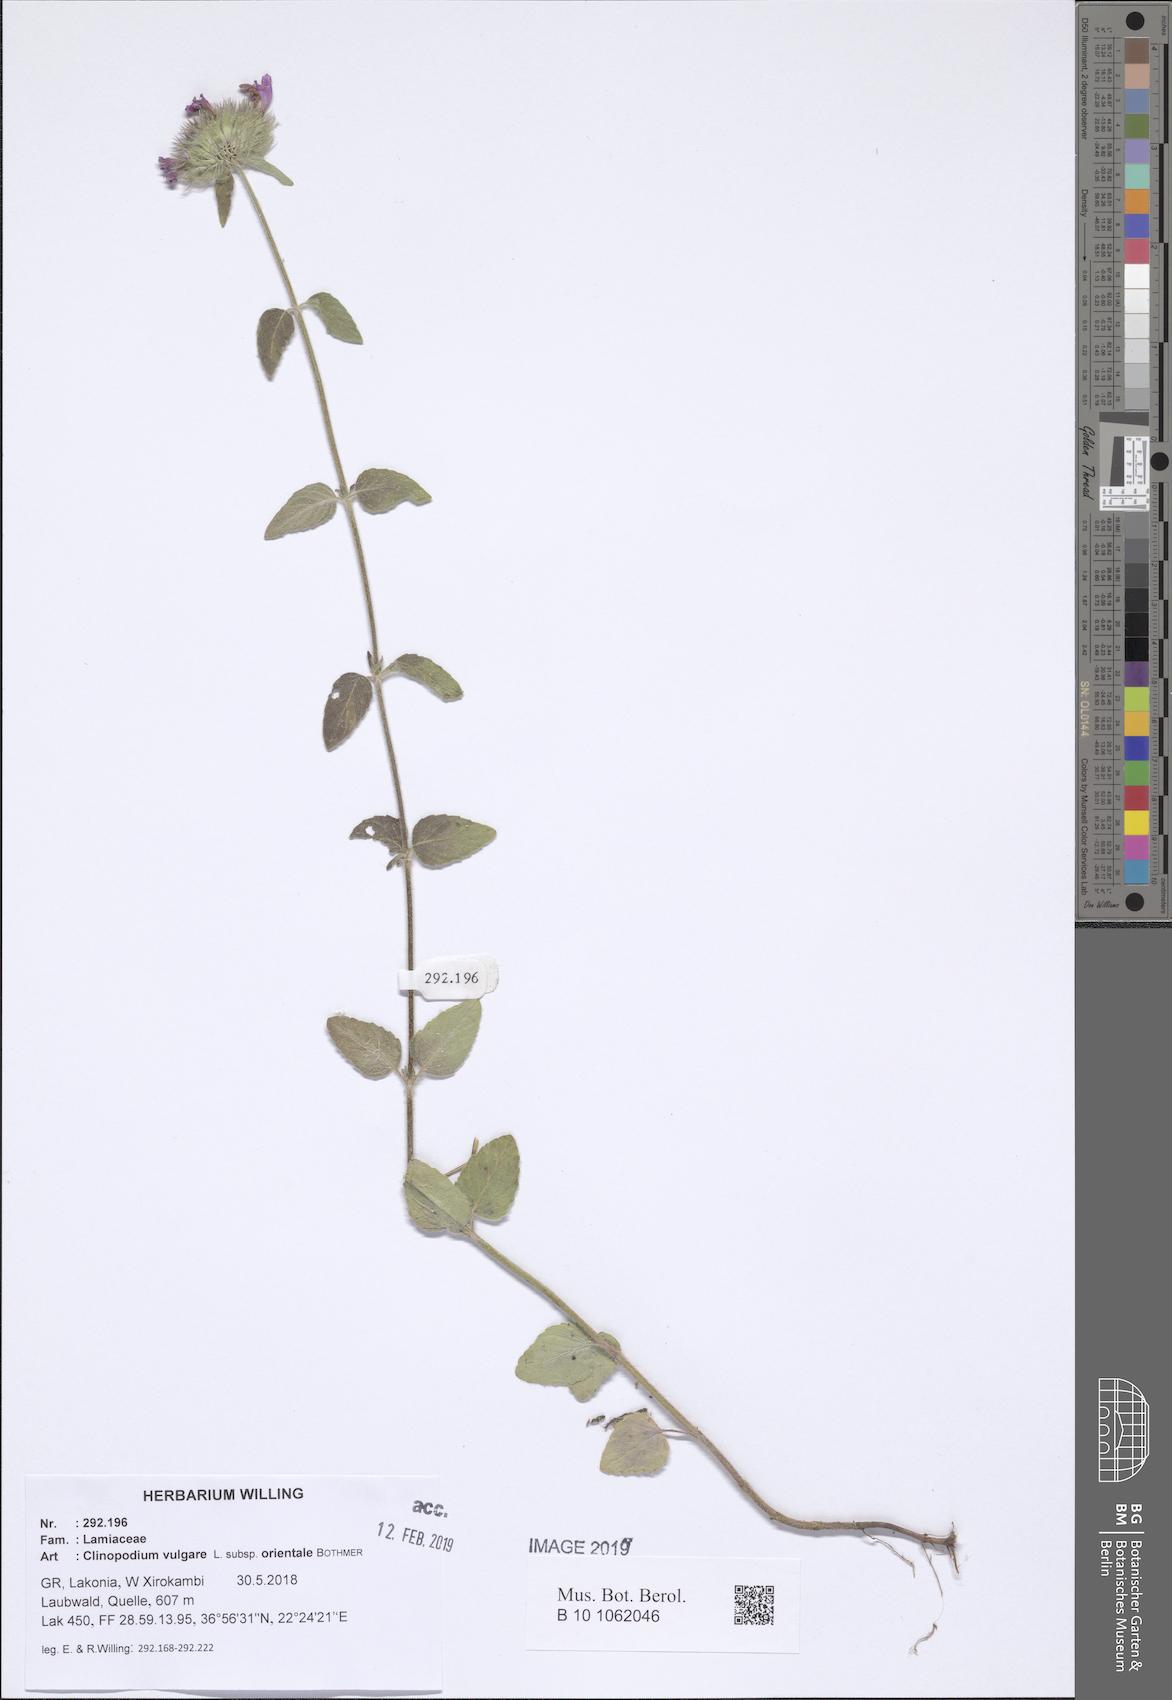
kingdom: Plantae
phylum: Tracheophyta
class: Magnoliopsida
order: Lamiales
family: Lamiaceae
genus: Clinopodium
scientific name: Clinopodium vulgare
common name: Wild basil
